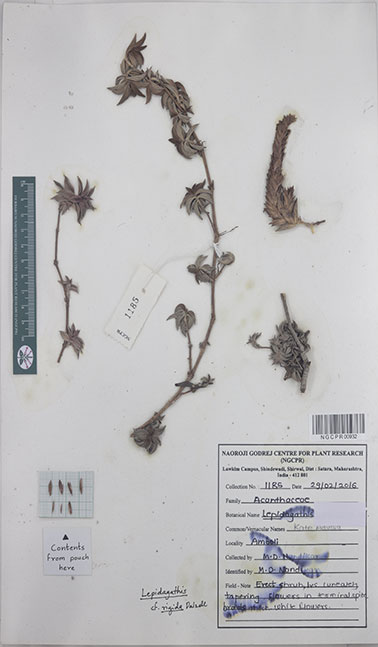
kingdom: Plantae
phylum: Tracheophyta
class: Magnoliopsida
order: Lamiales
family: Acanthaceae
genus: Lepidagathis
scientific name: Lepidagathis rigida
